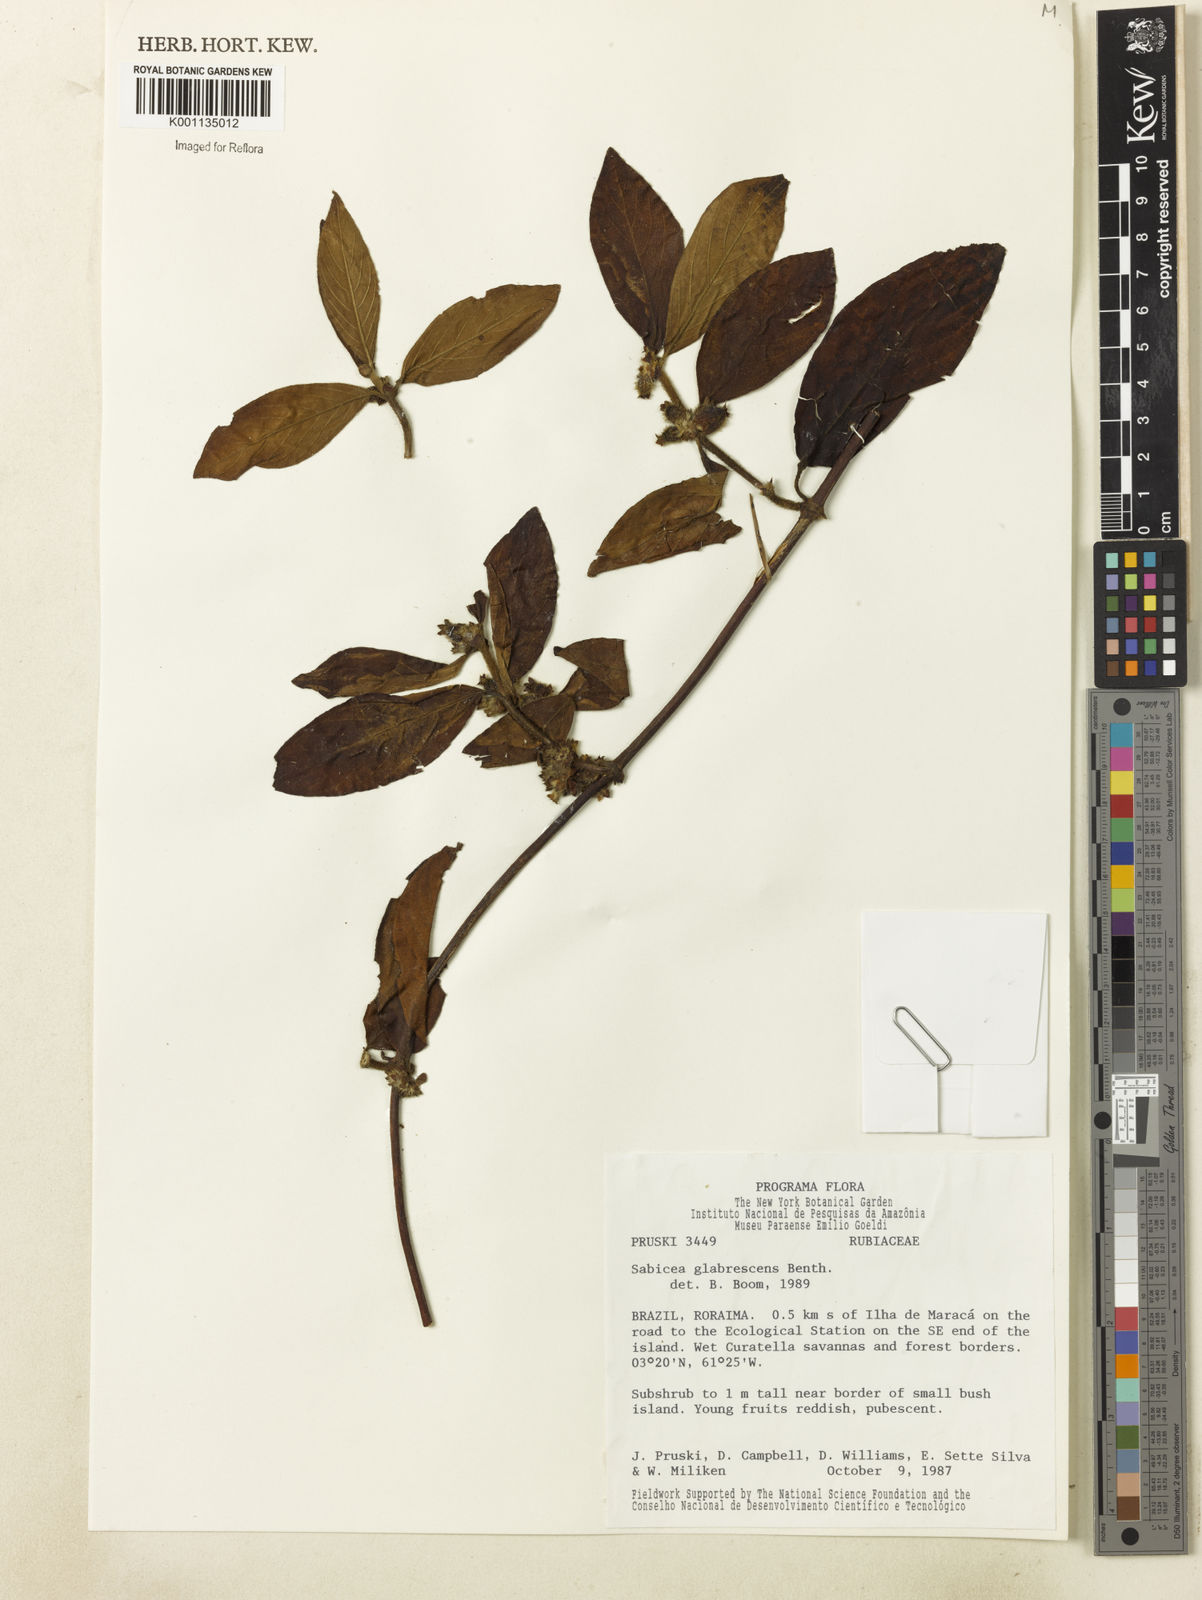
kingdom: Plantae
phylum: Tracheophyta
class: Magnoliopsida
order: Gentianales
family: Rubiaceae
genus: Sabicea
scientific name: Sabicea glabrescens
